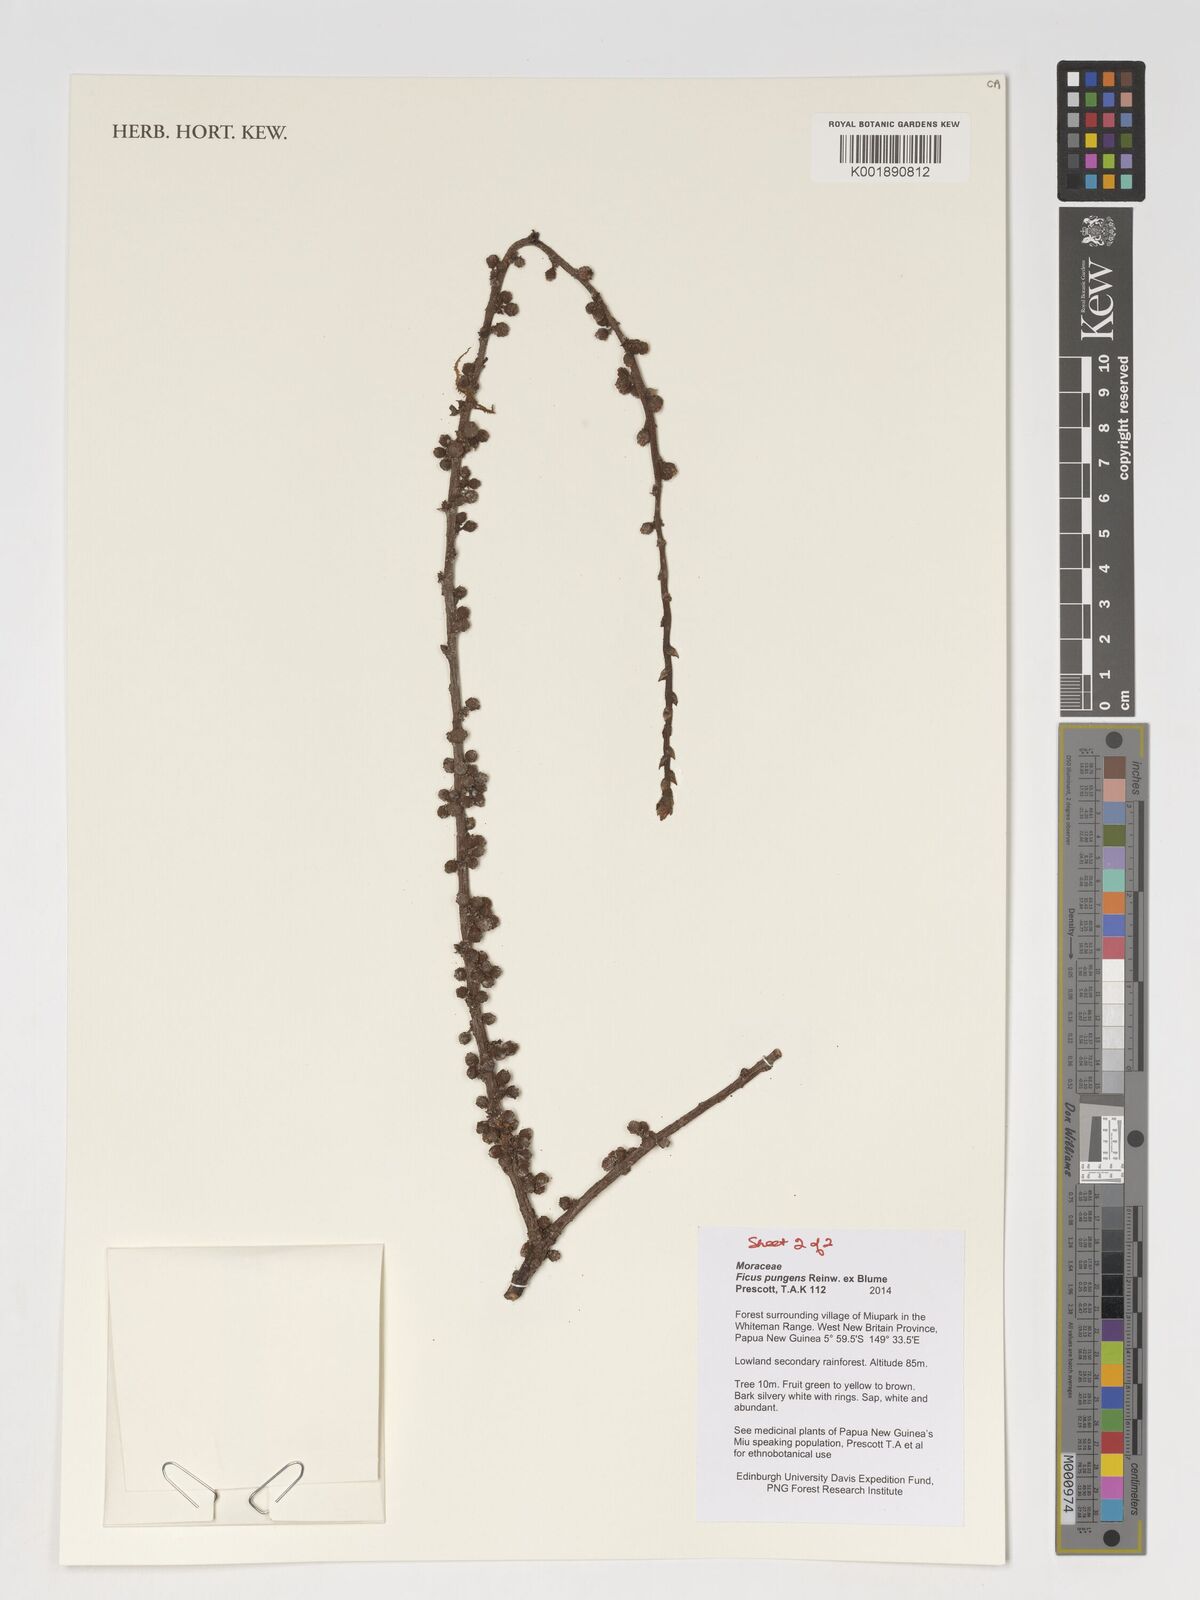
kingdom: Plantae
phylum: Tracheophyta
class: Magnoliopsida
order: Rosales
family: Moraceae
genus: Ficus
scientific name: Ficus pungens
